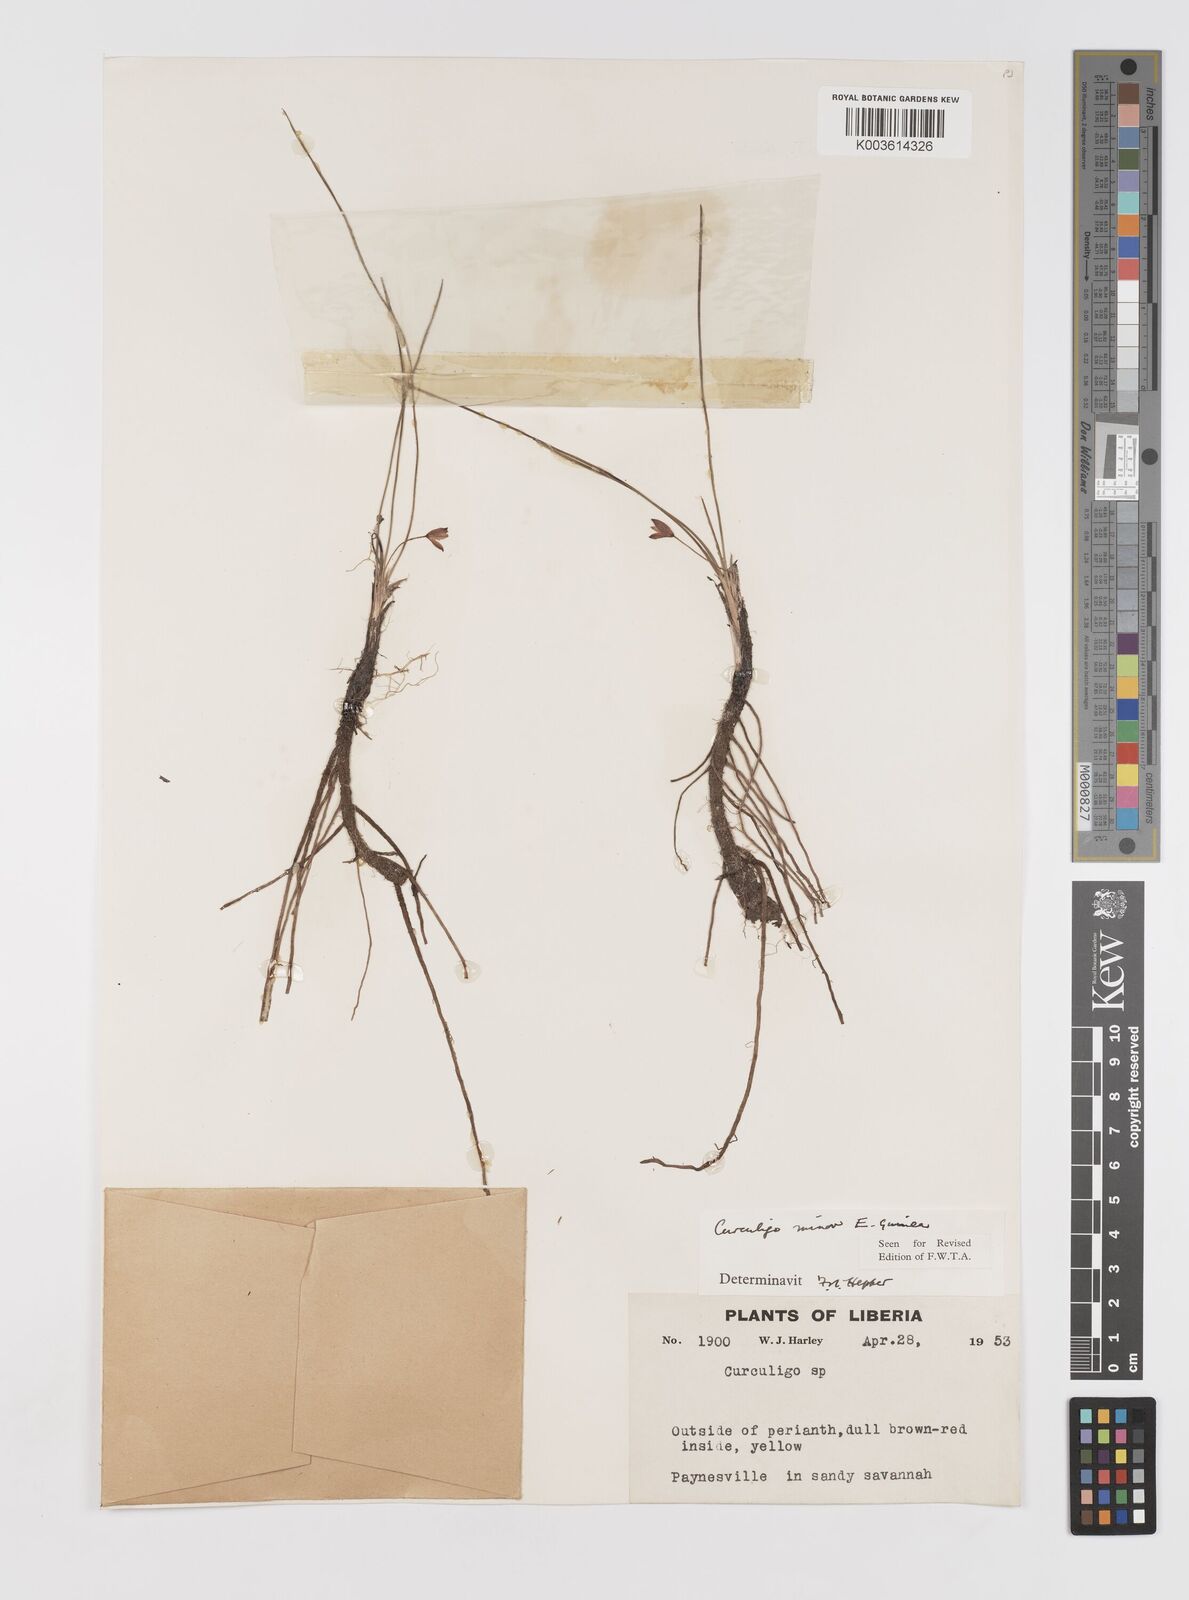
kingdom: Plantae
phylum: Tracheophyta
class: Liliopsida
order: Asparagales
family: Hypoxidaceae
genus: Curculigo
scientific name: Curculigo pilosa
